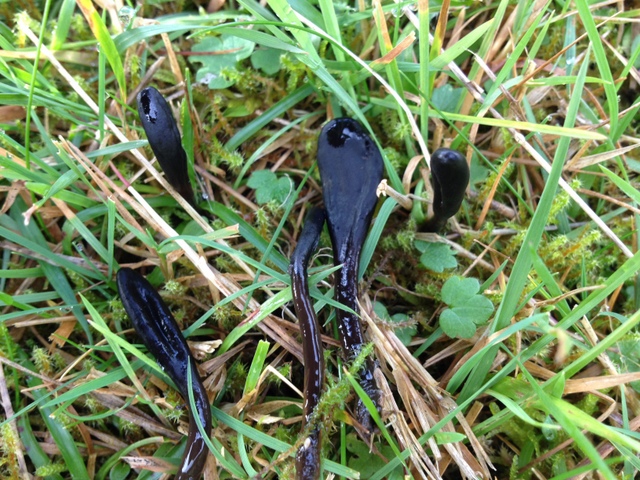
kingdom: Fungi
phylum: Ascomycota
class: Geoglossomycetes
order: Geoglossales
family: Geoglossaceae
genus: Glutinoglossum
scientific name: Glutinoglossum glutinosum
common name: slimet jordtunge
